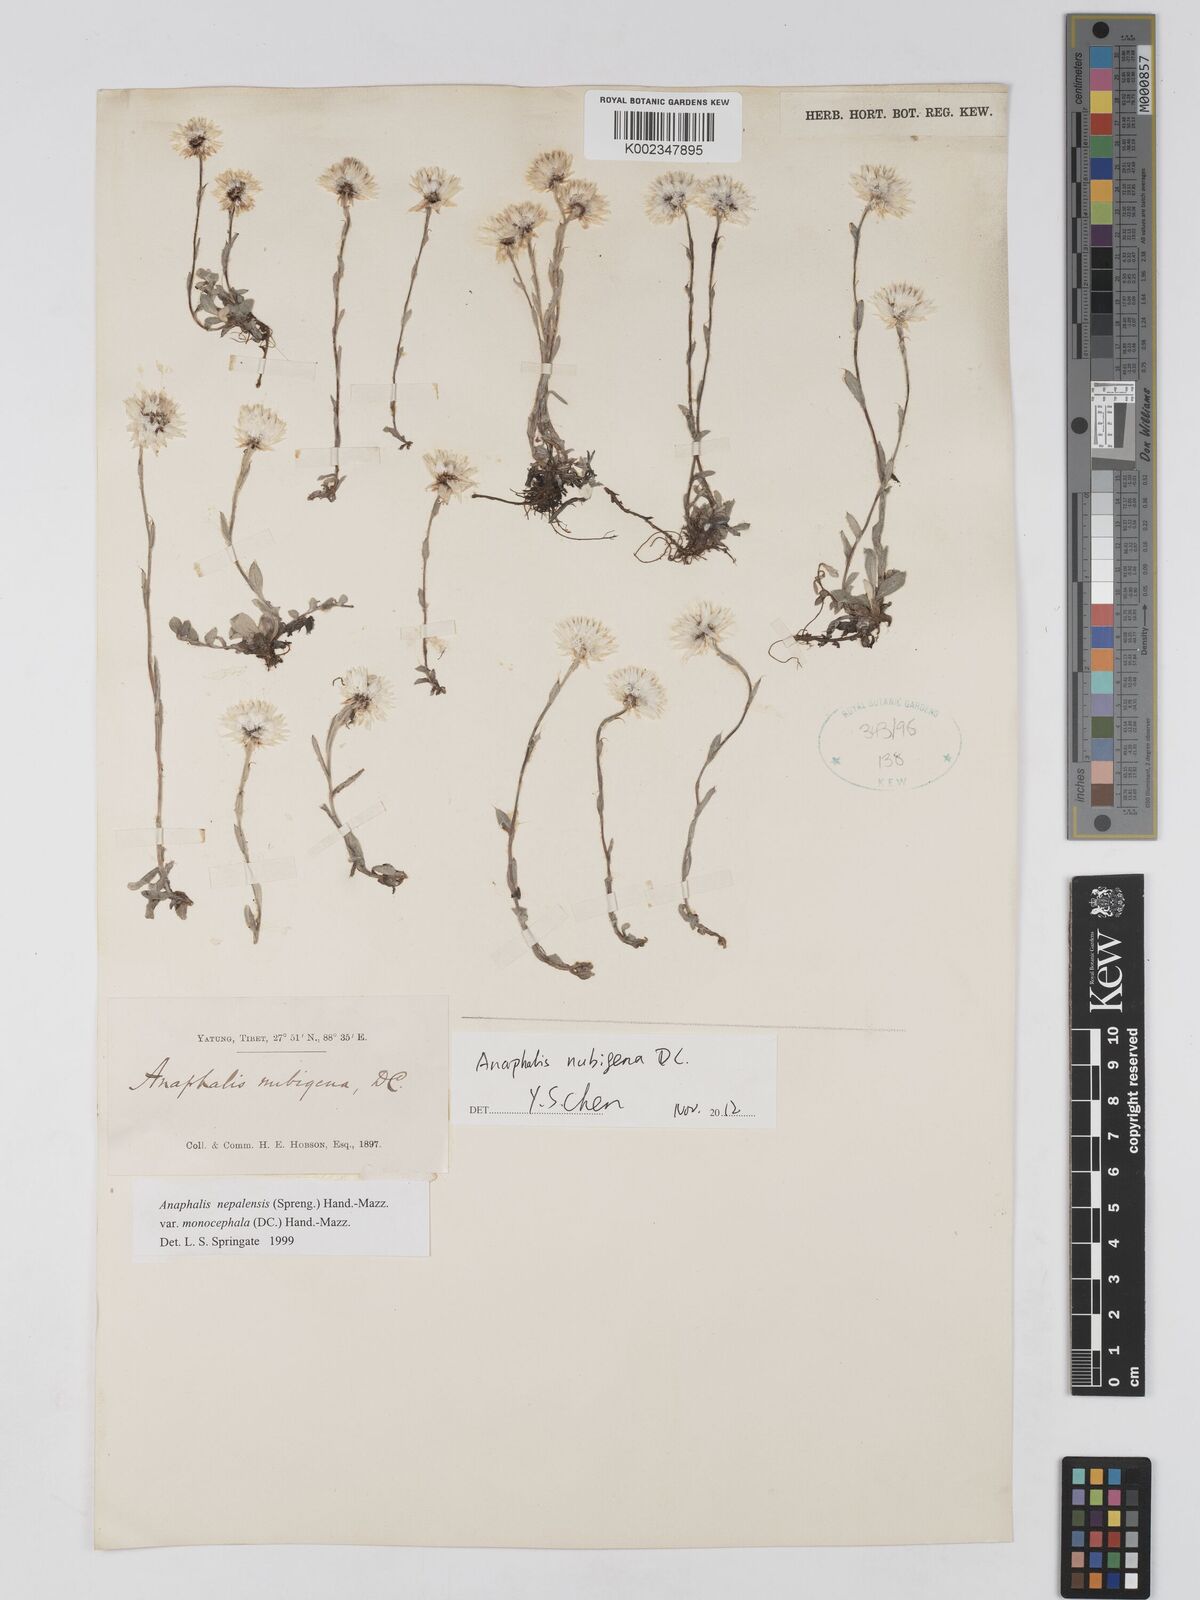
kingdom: Plantae
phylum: Tracheophyta
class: Magnoliopsida
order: Asterales
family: Asteraceae
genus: Anaphalis
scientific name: Anaphalis nepalensis
